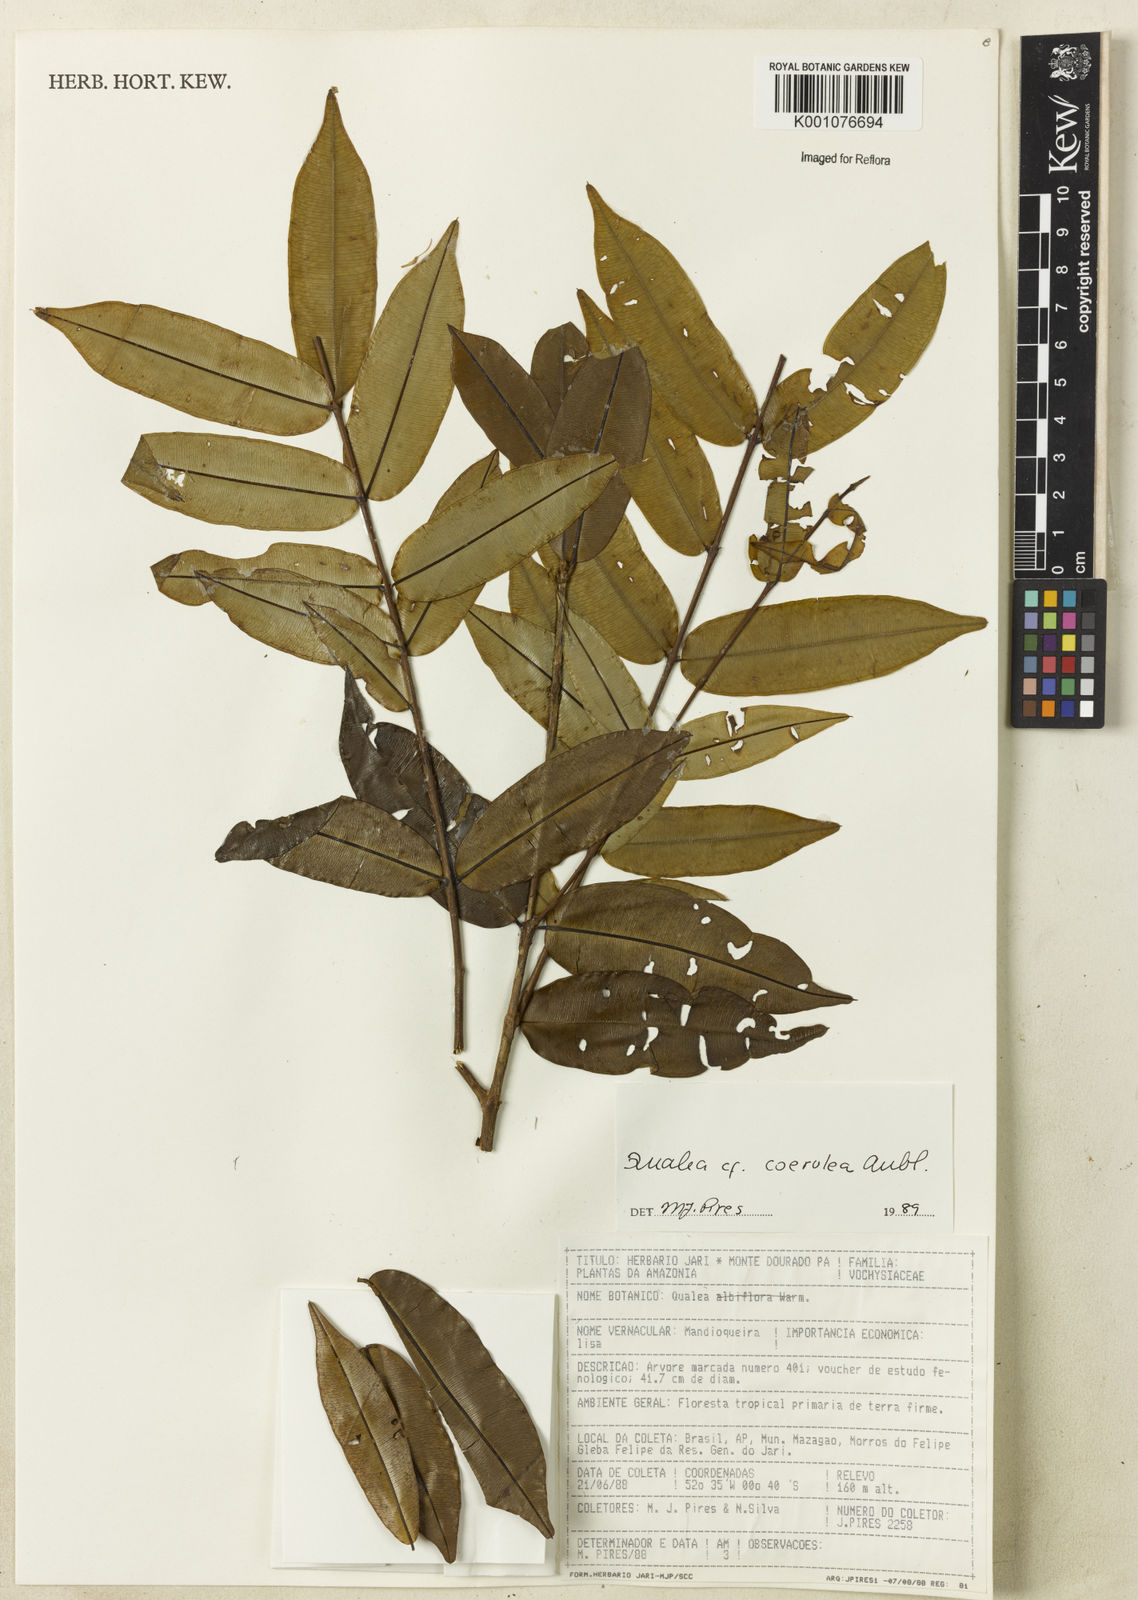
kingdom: Plantae
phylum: Tracheophyta
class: Magnoliopsida
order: Myrtales
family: Vochysiaceae
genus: Qualea
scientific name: Qualea
